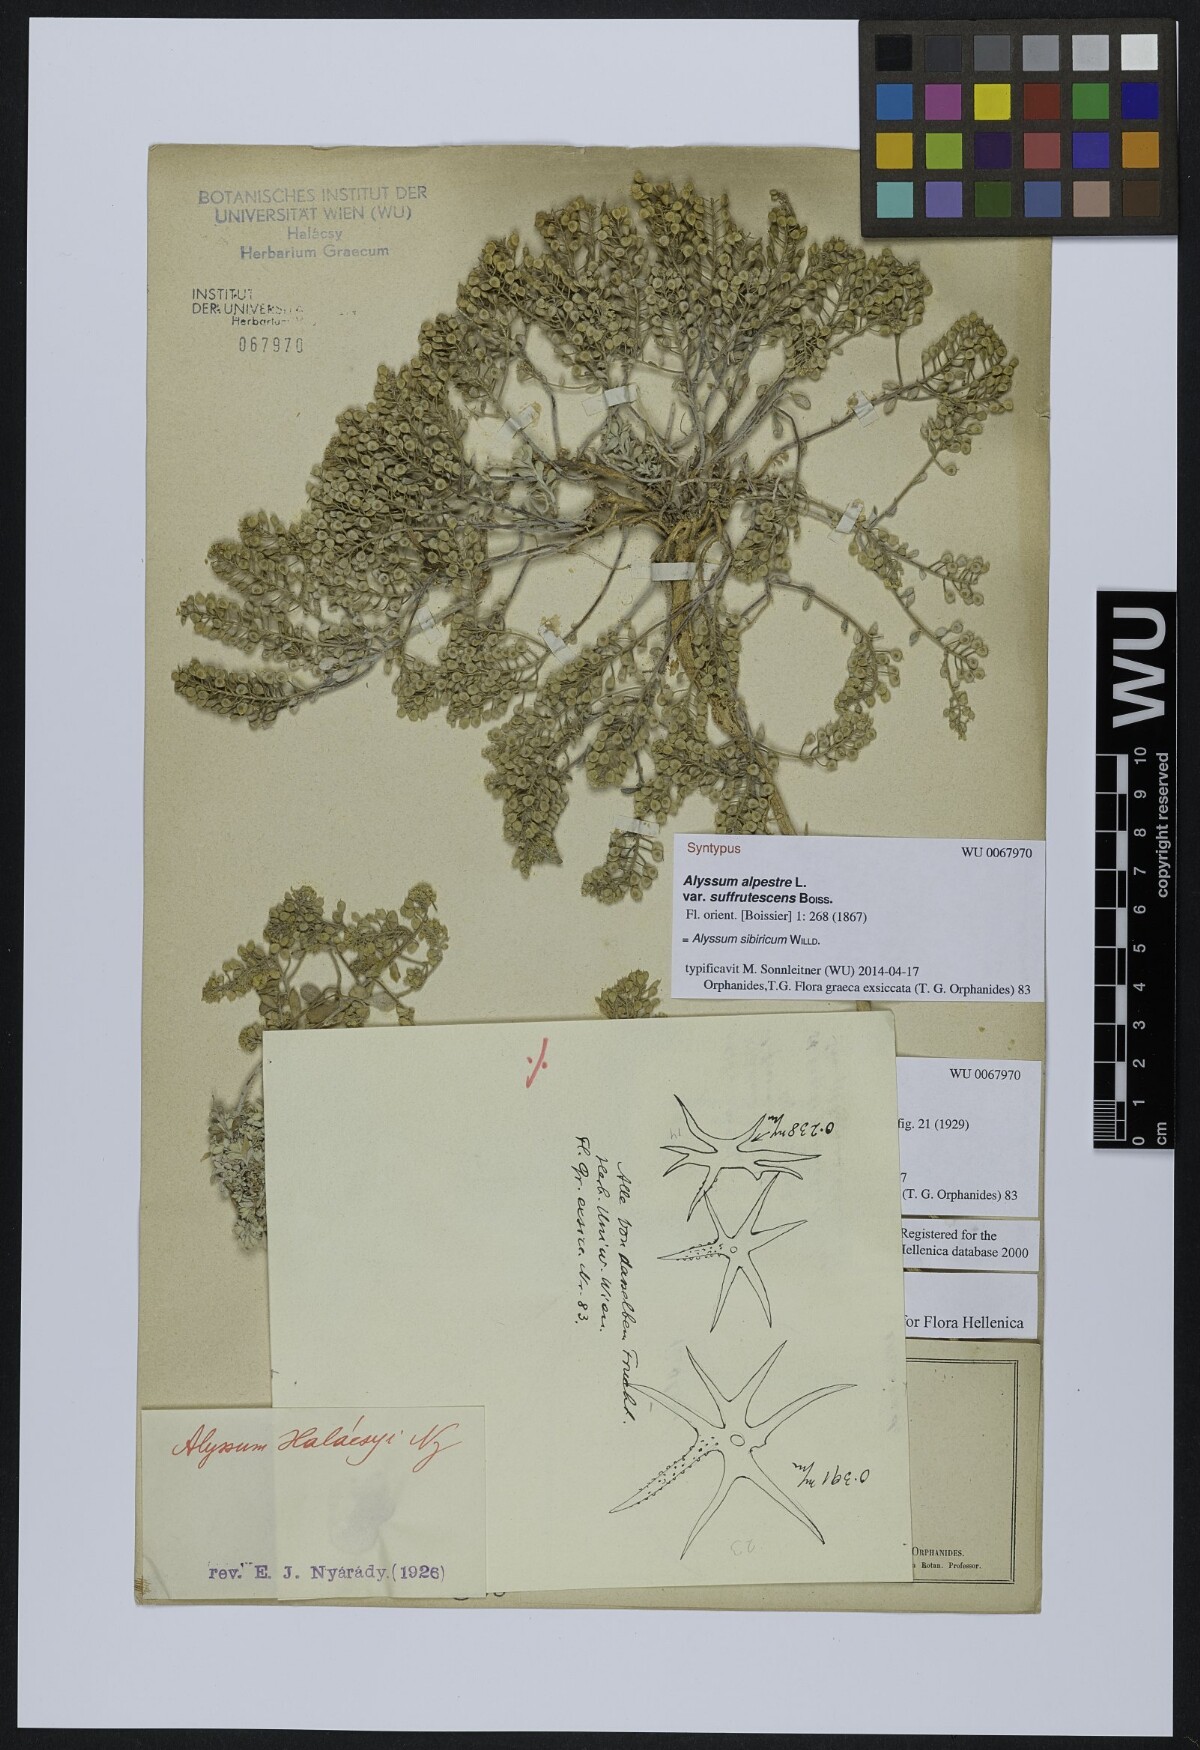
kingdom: Plantae
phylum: Tracheophyta
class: Magnoliopsida
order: Brassicales
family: Brassicaceae
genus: Odontarrhena
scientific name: Odontarrhena sibirica
